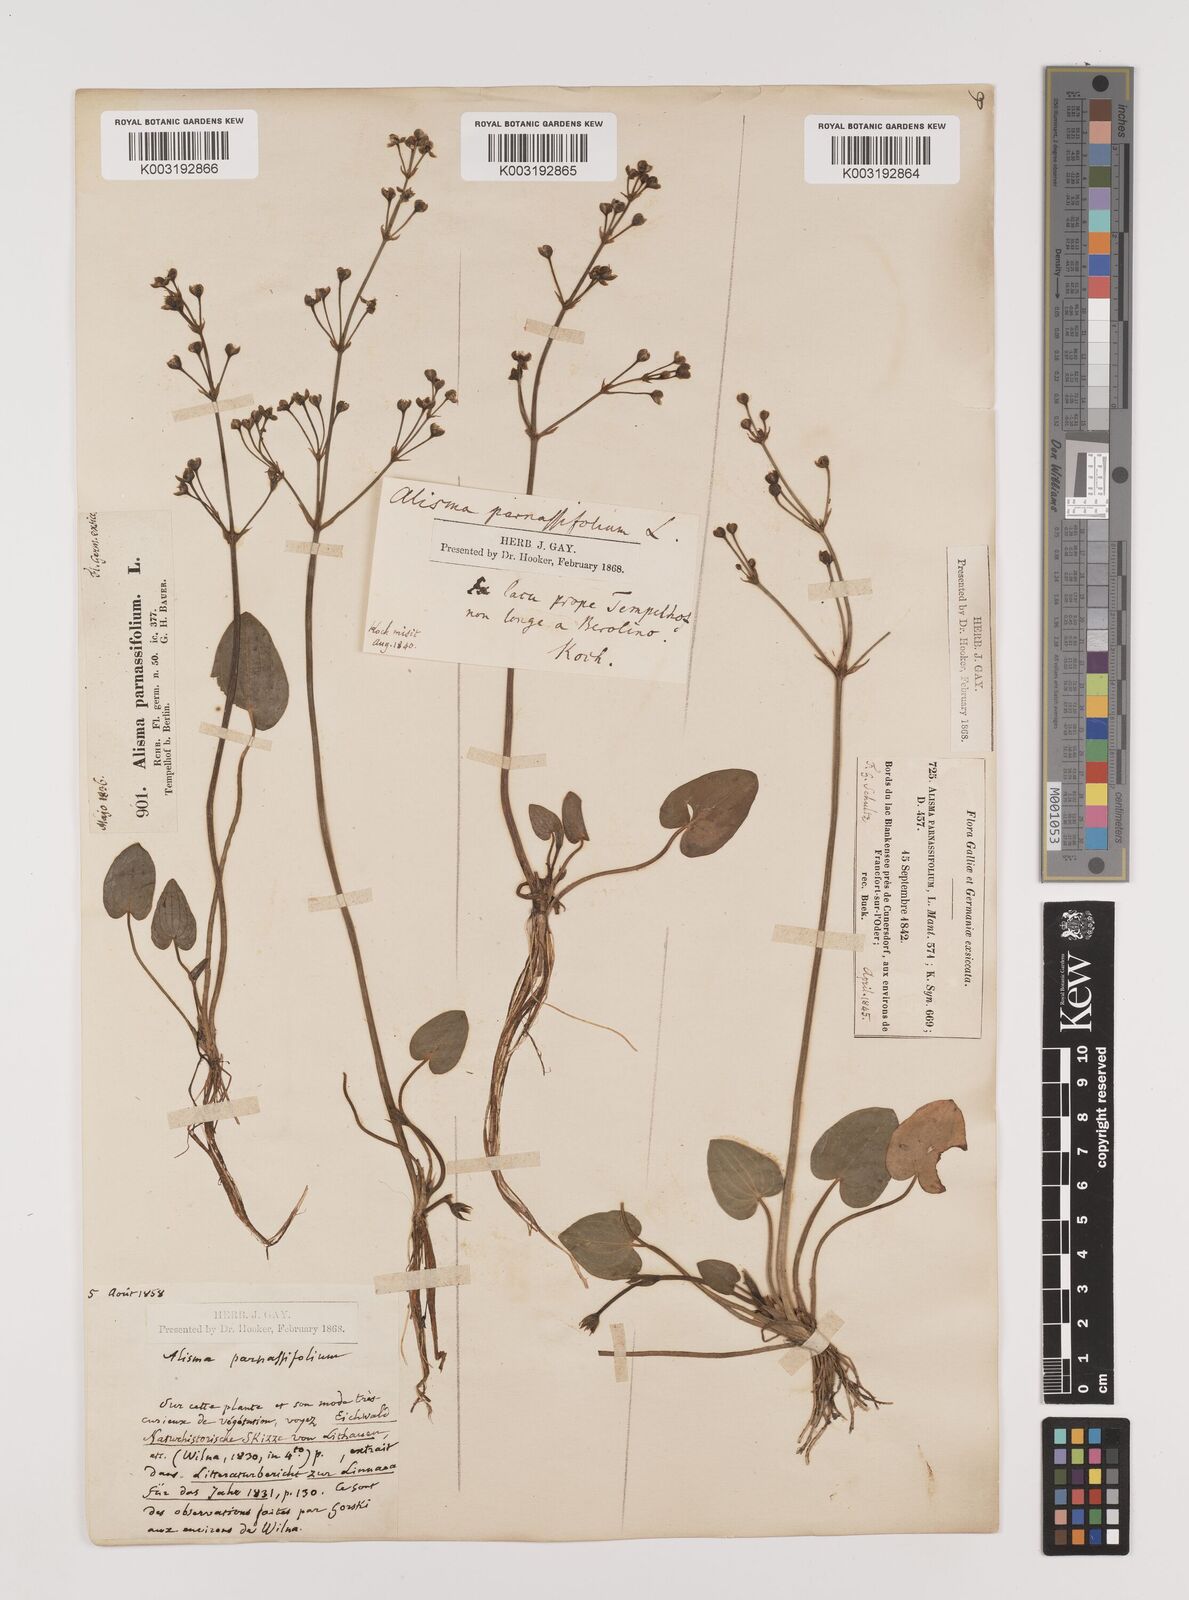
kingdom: Plantae
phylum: Tracheophyta
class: Liliopsida
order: Alismatales
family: Alismataceae
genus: Caldesia
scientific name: Caldesia parnassifolia
